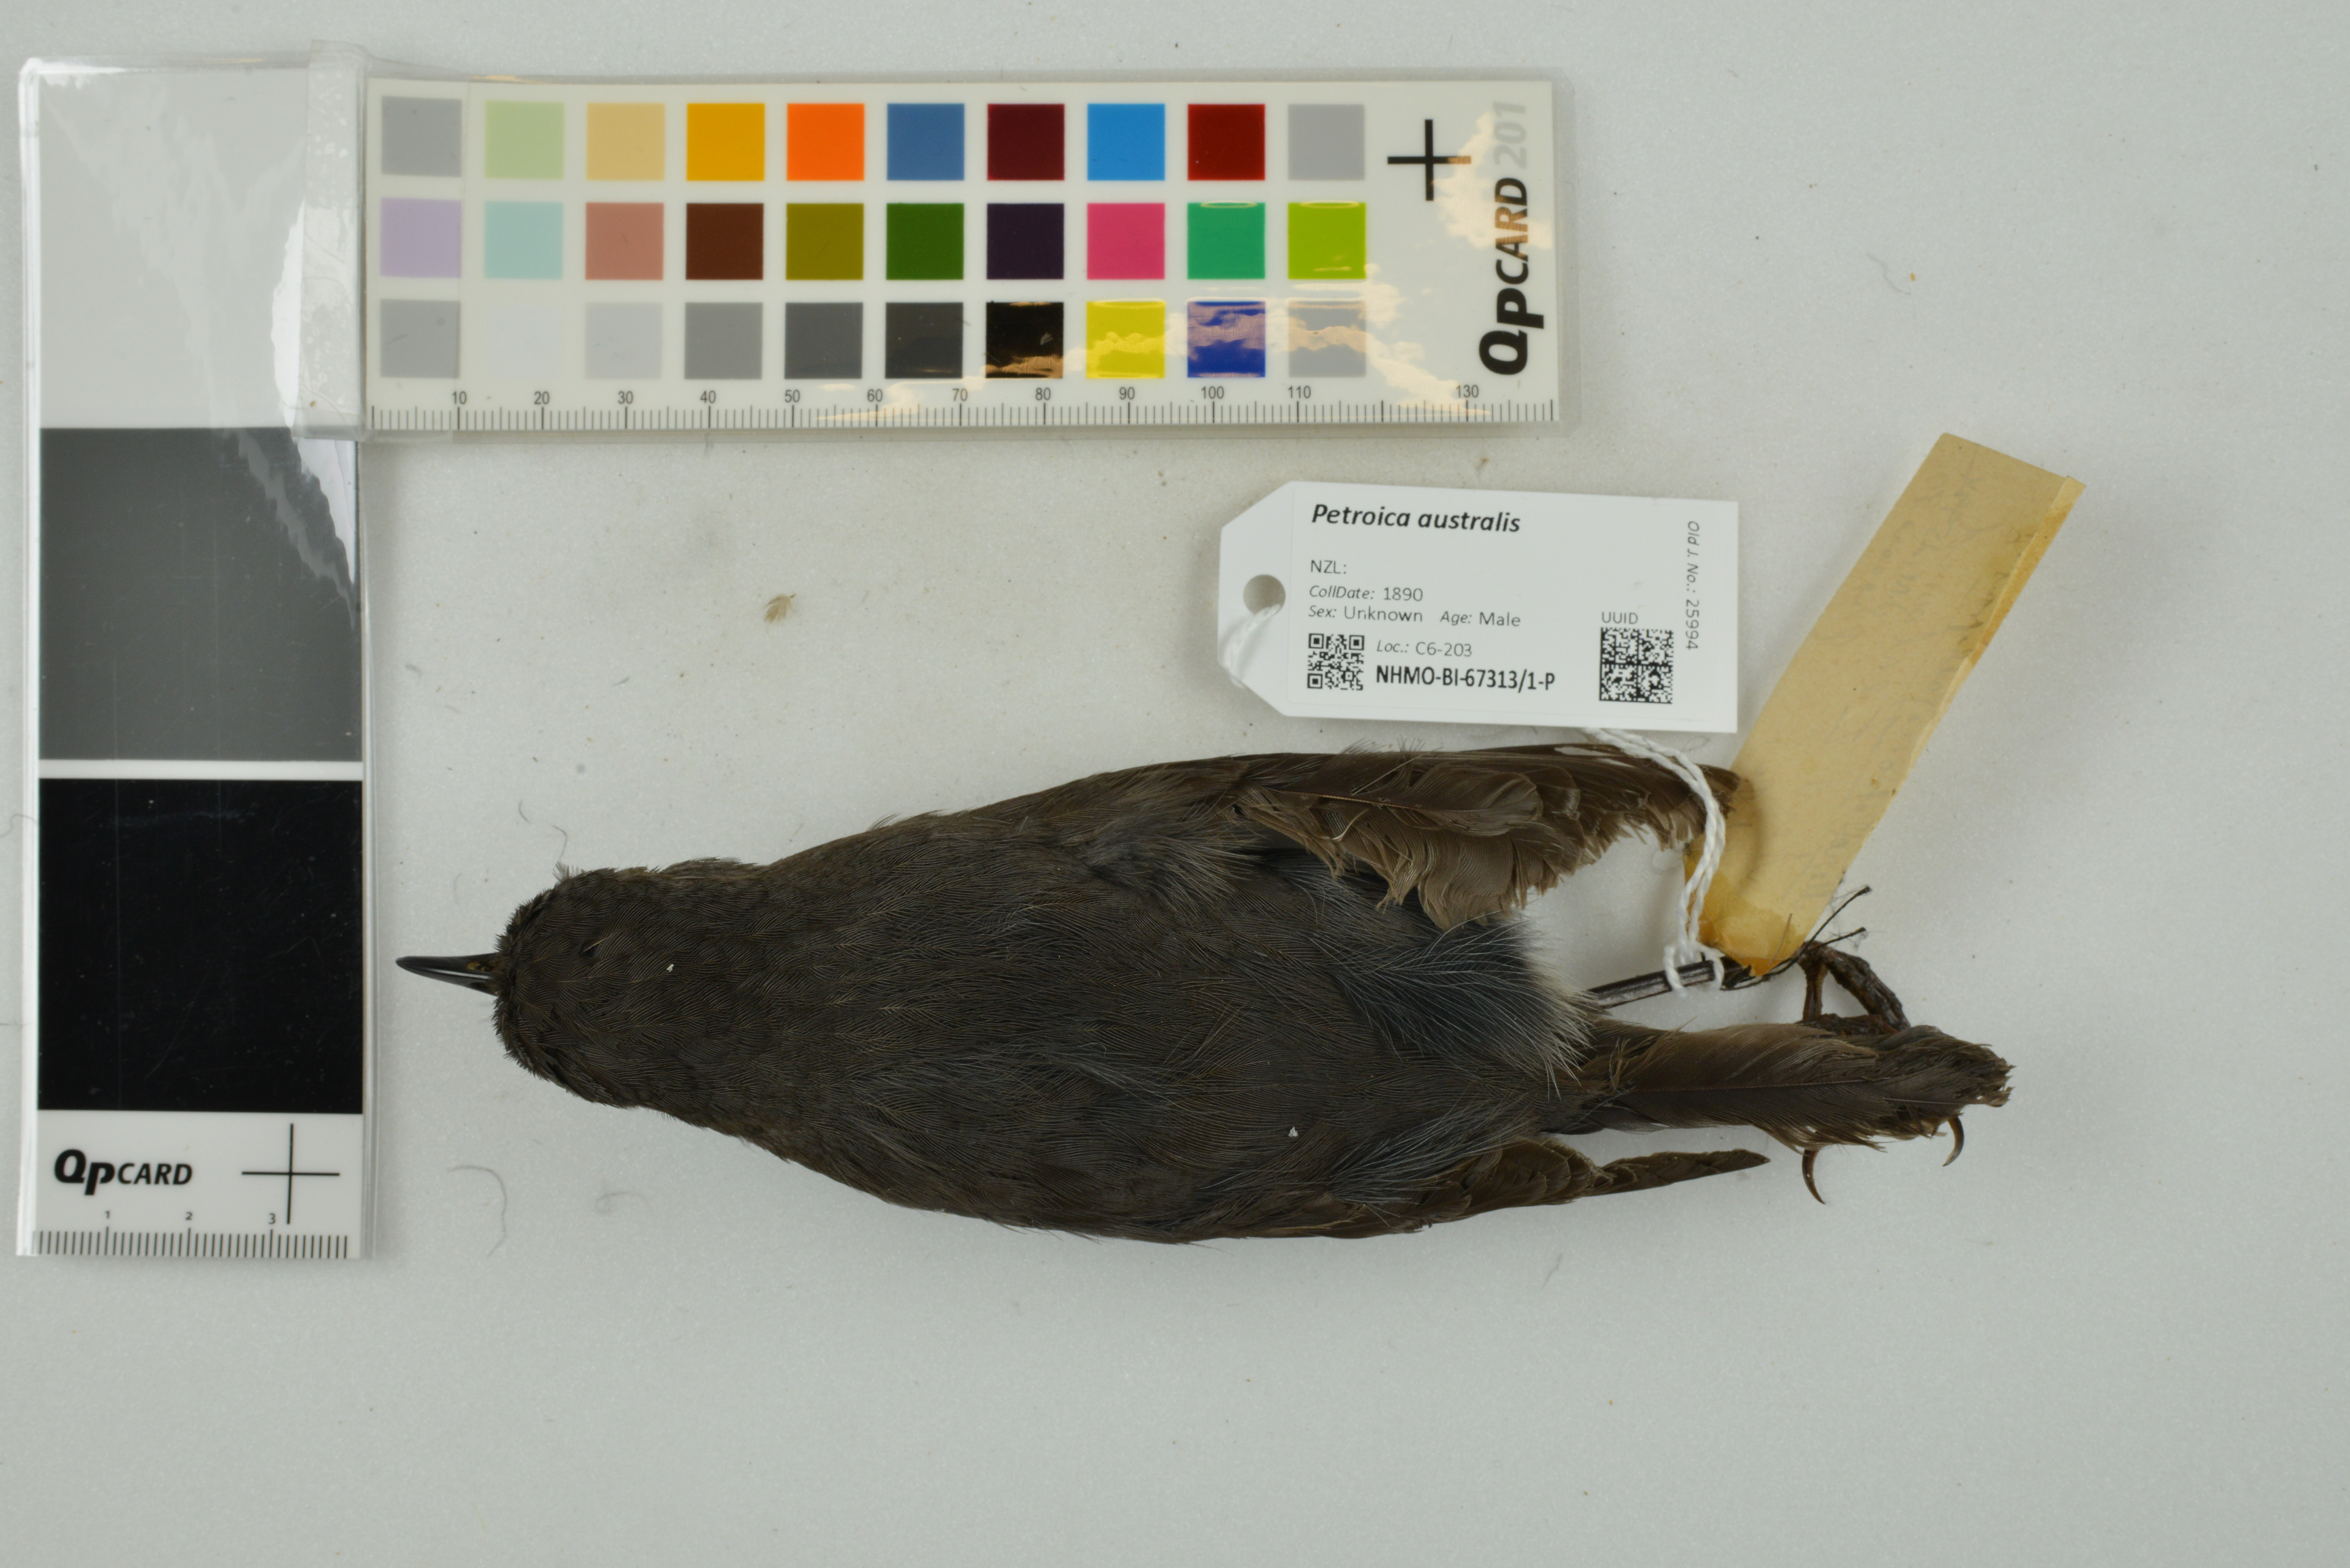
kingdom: Animalia
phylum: Chordata
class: Aves
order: Passeriformes
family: Petroicidae
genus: Petroica
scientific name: Petroica australis
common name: New zealand robin
